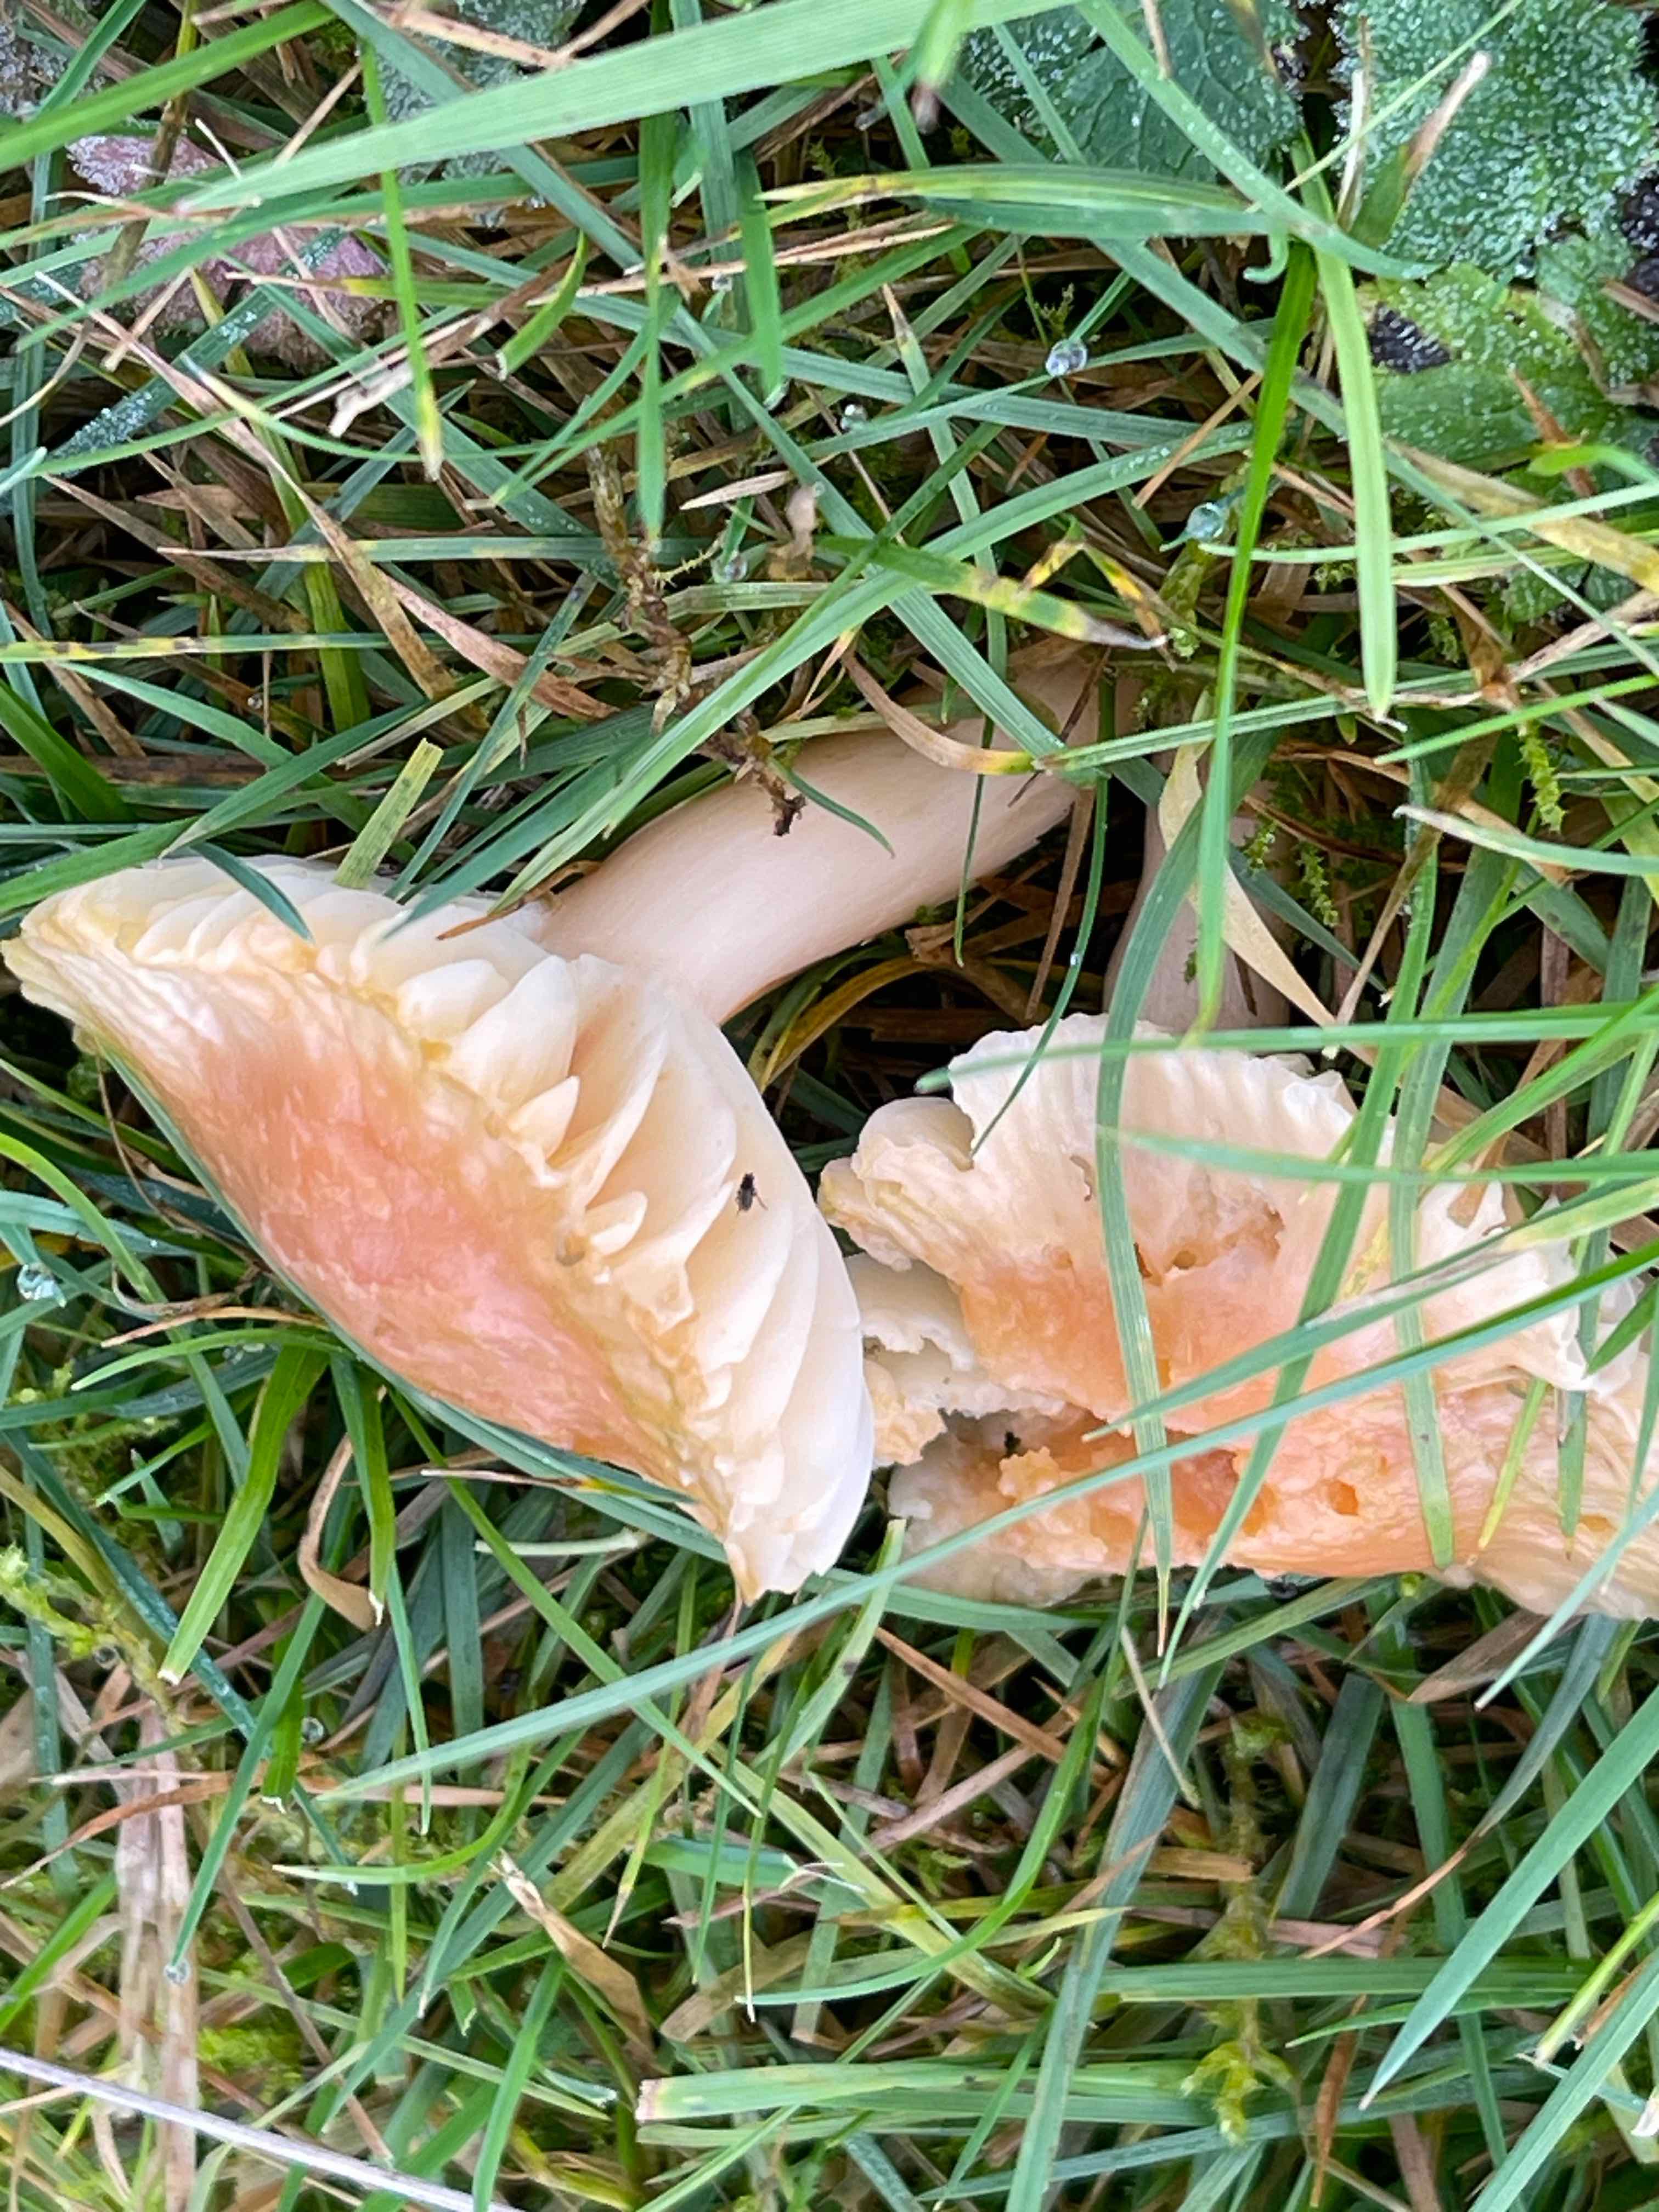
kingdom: Fungi
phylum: Basidiomycota
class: Agaricomycetes
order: Agaricales
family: Hygrophoraceae
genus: Cuphophyllus
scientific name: Cuphophyllus pratensis
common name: eng-vokshat
